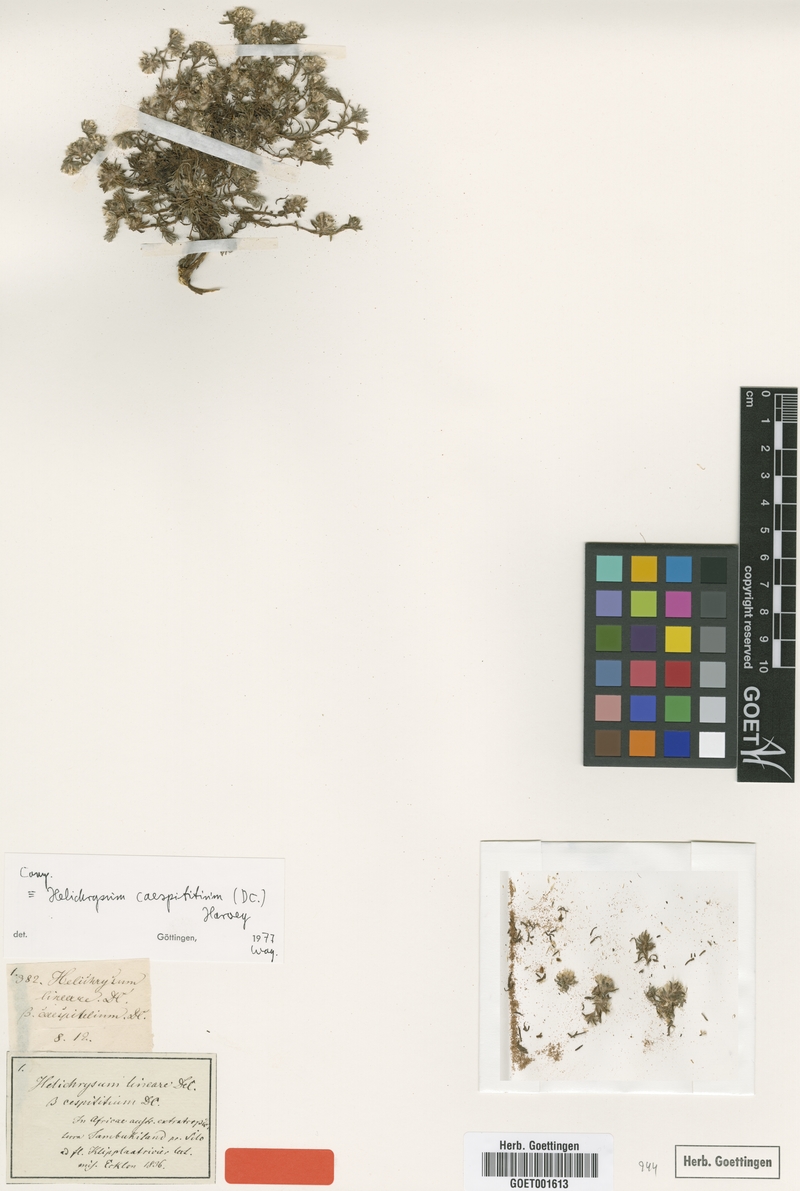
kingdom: Plantae
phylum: Tracheophyta
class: Magnoliopsida
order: Asterales
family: Asteraceae
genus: Helichrysum
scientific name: Helichrysum caespititium
